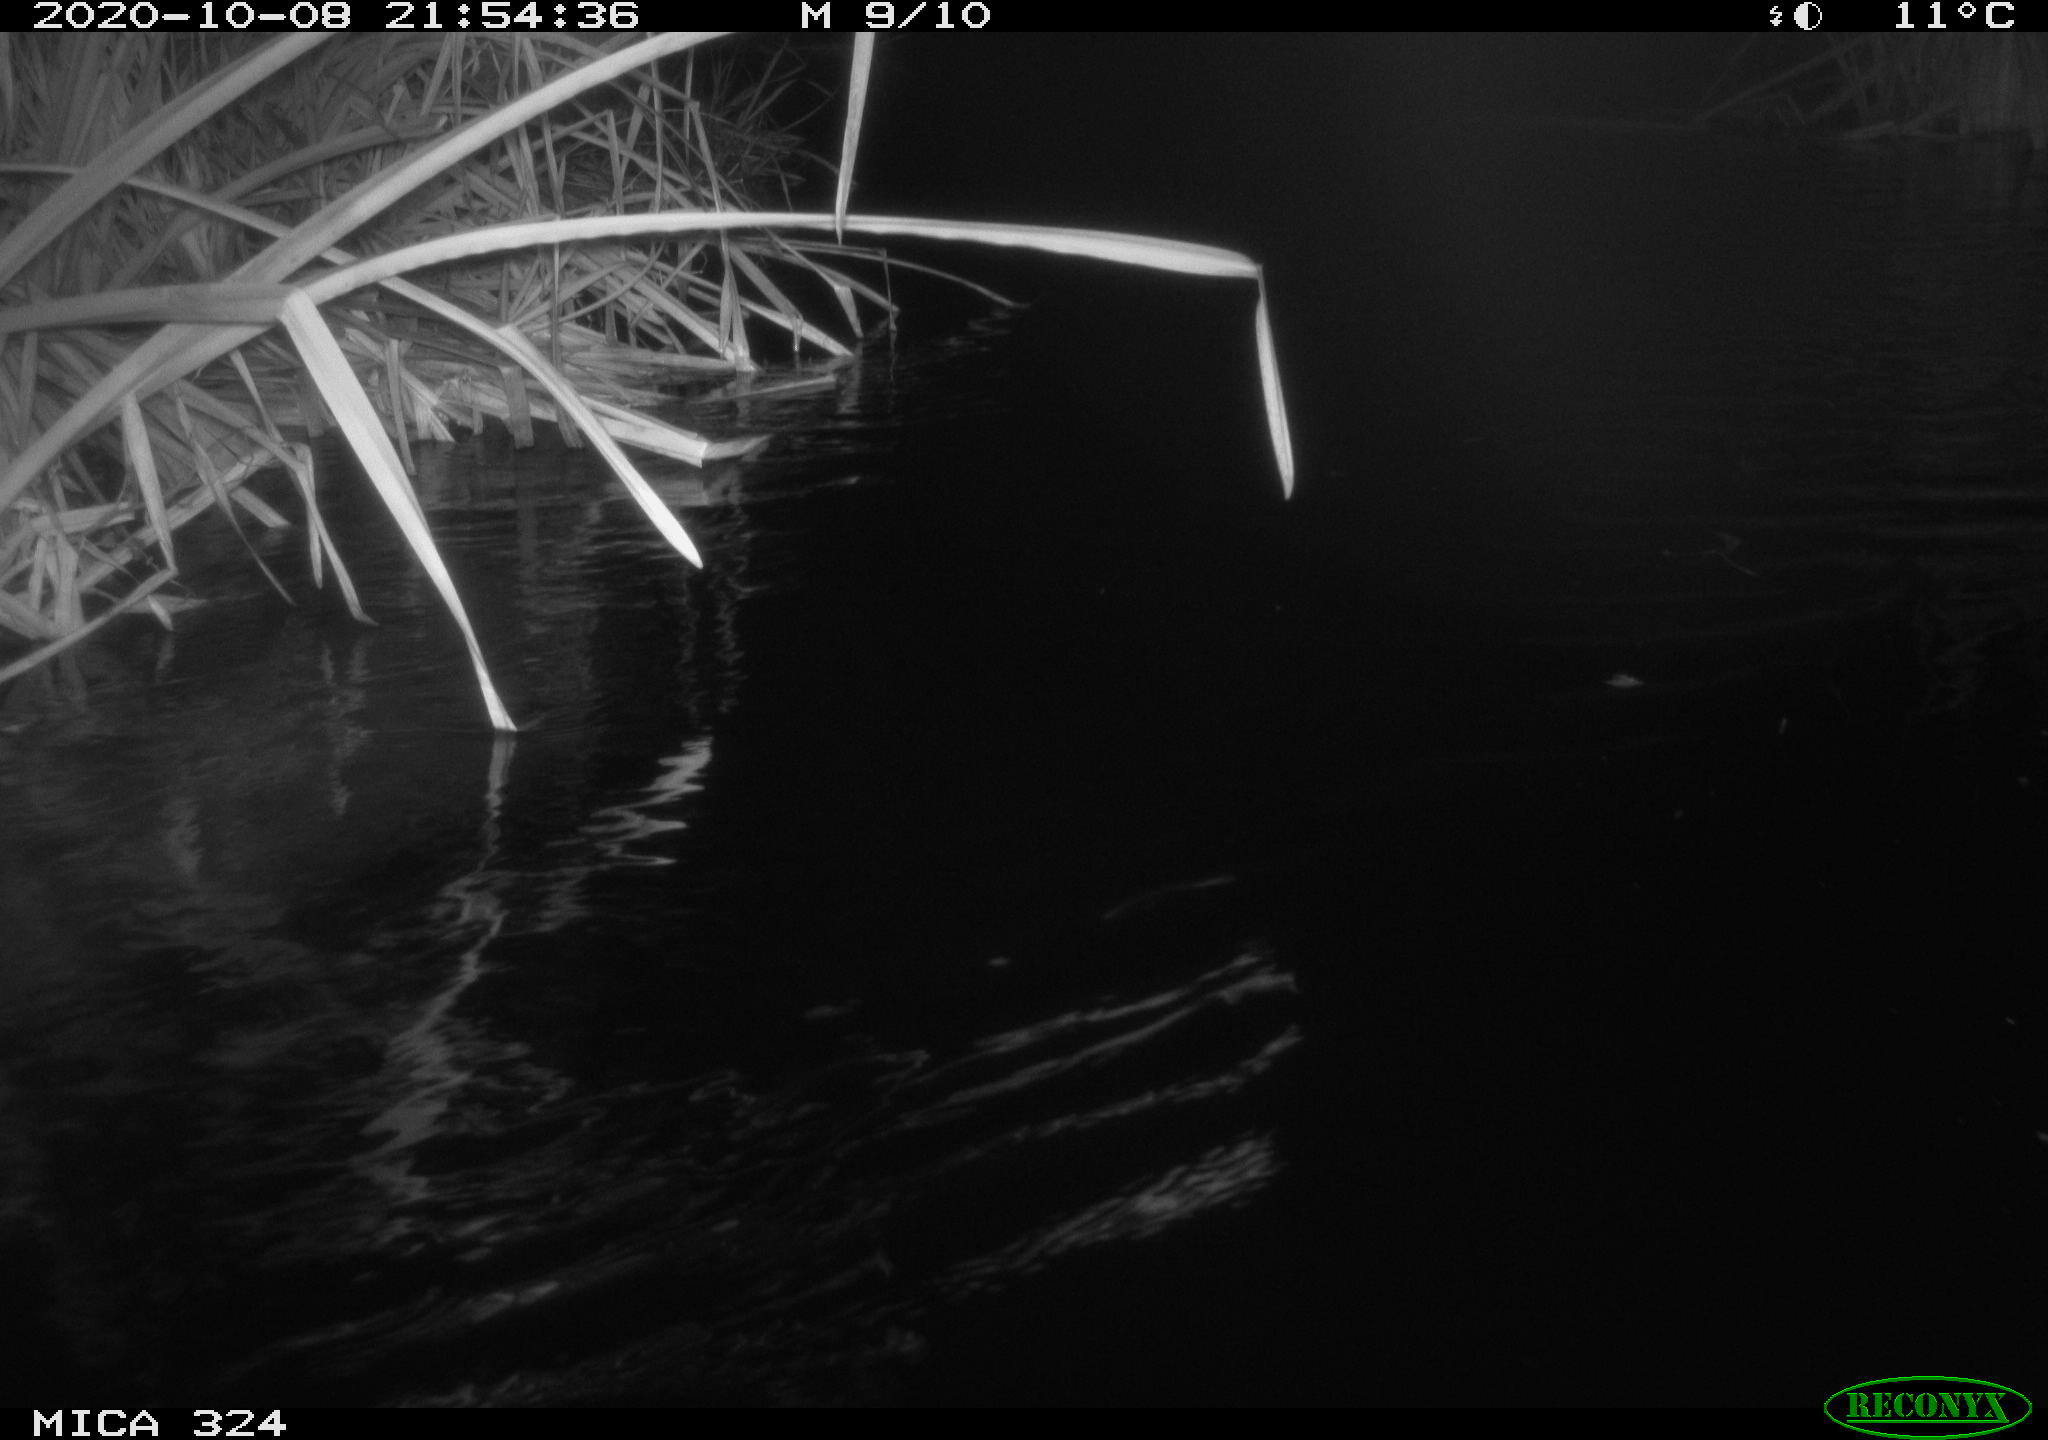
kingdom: Animalia
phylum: Chordata
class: Mammalia
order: Rodentia
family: Cricetidae
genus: Ondatra
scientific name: Ondatra zibethicus
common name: Muskrat
